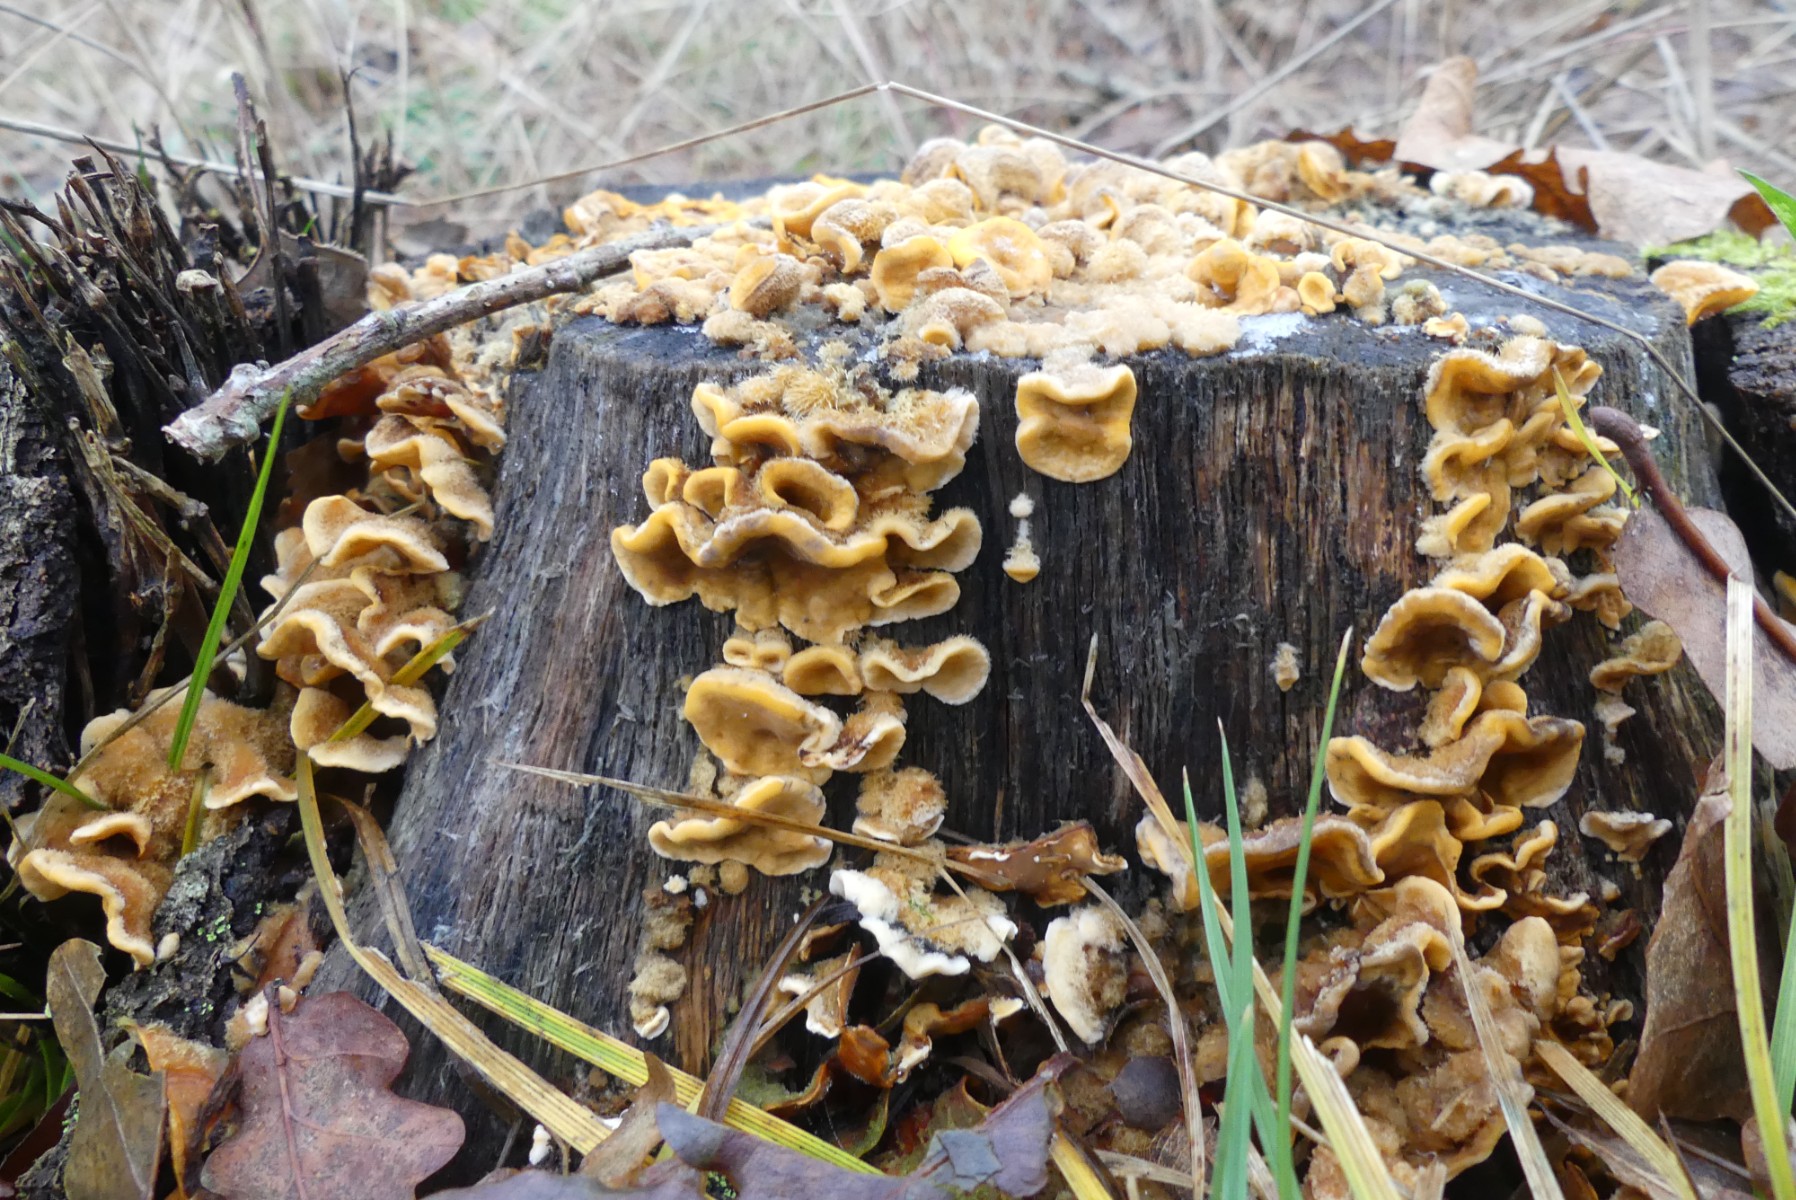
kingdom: Fungi
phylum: Basidiomycota
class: Agaricomycetes
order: Russulales
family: Stereaceae
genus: Stereum
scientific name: Stereum hirsutum
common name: håret lædersvamp
